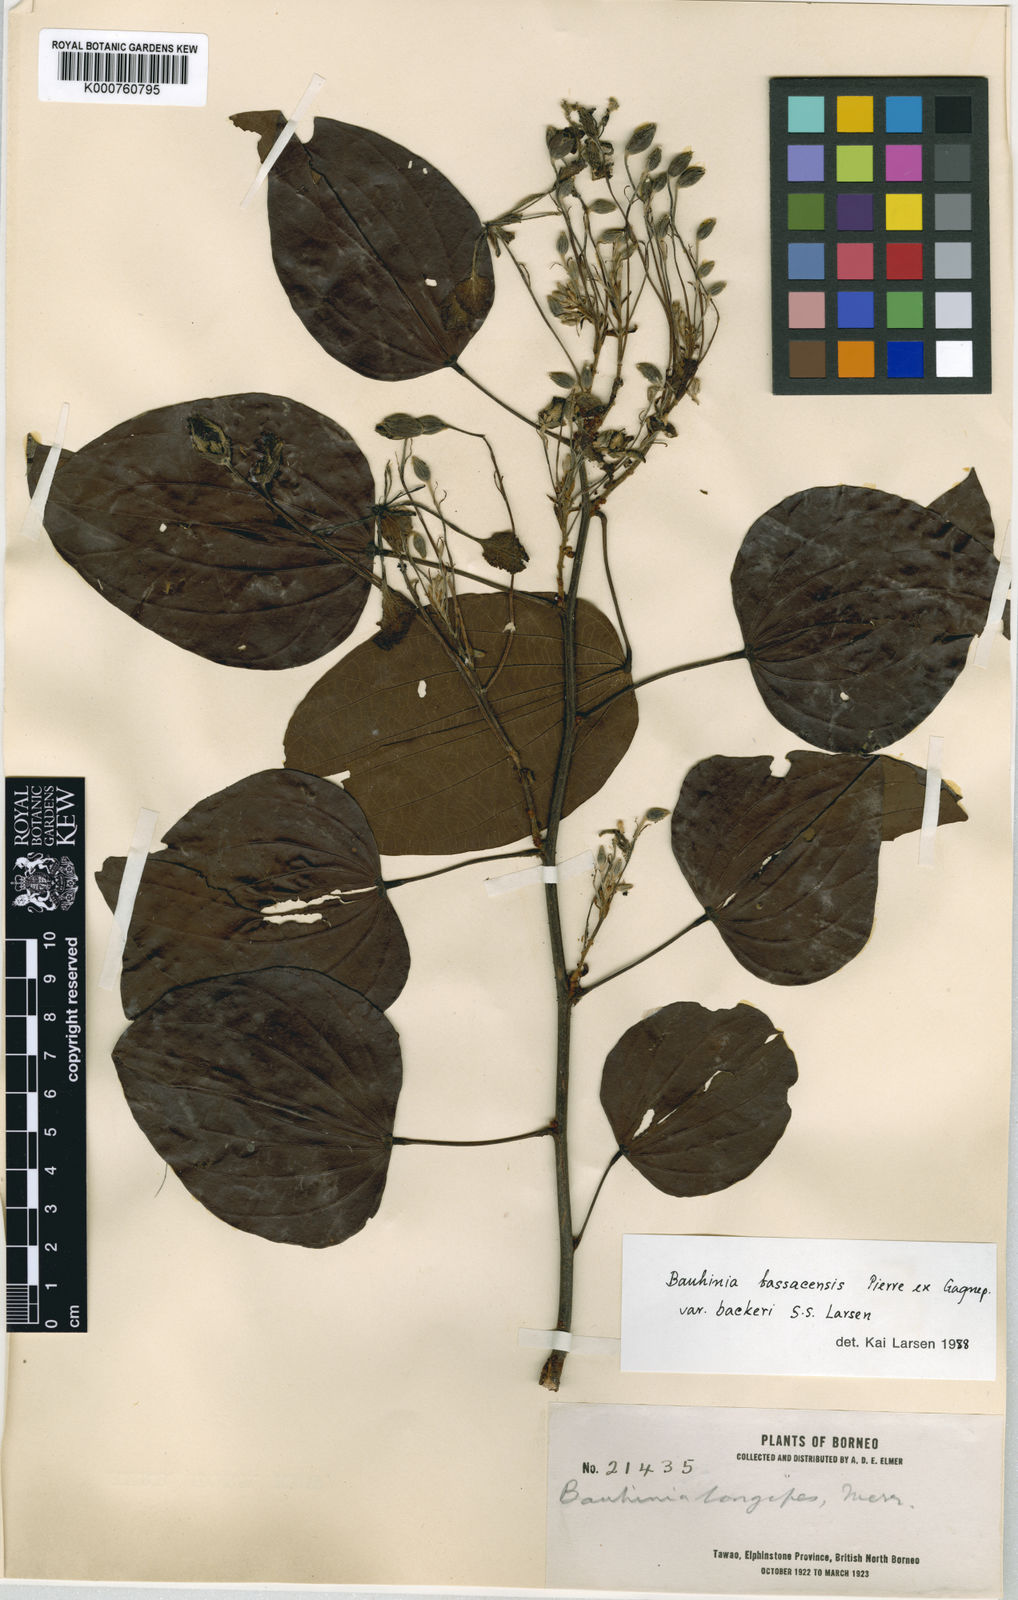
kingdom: Plantae
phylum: Tracheophyta
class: Magnoliopsida
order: Fabales
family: Fabaceae
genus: Phanera
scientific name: Phanera bassacensis
